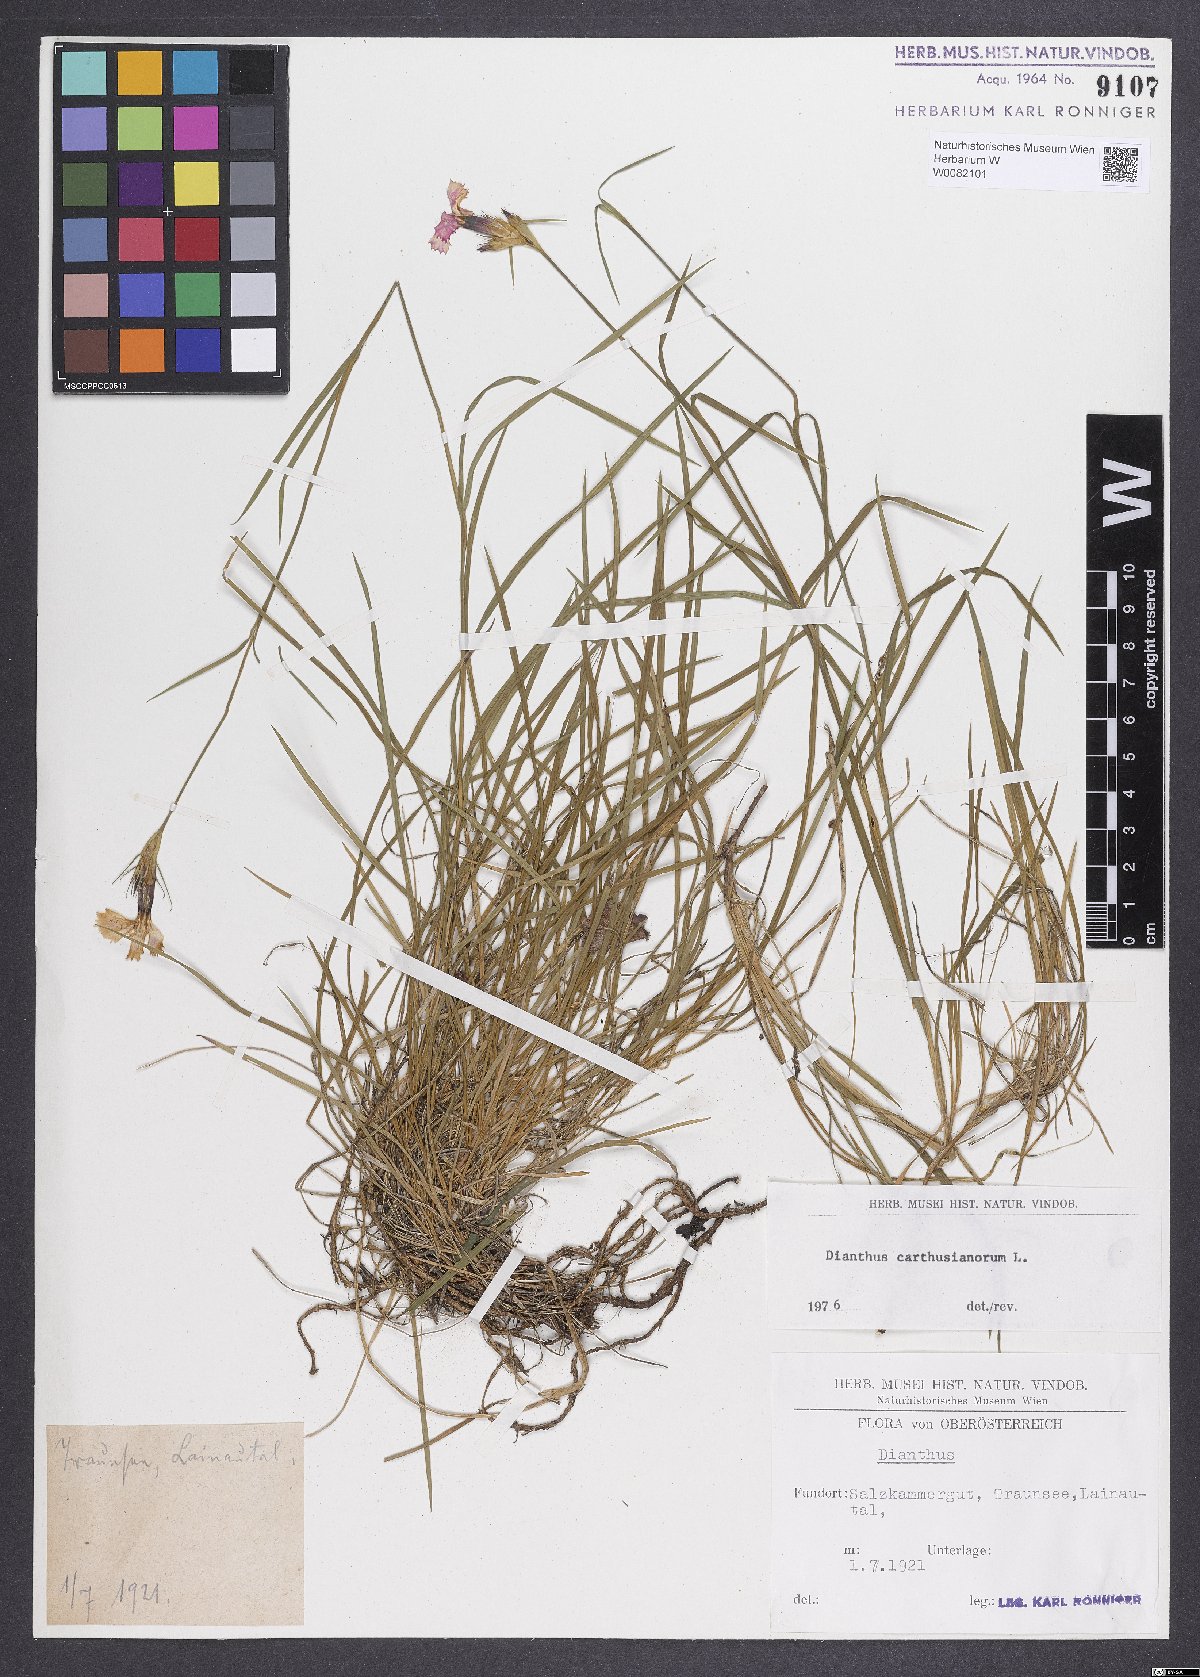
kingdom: Plantae
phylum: Tracheophyta
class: Magnoliopsida
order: Caryophyllales
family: Caryophyllaceae
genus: Dianthus
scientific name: Dianthus carthusianorum
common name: Carthusian pink
